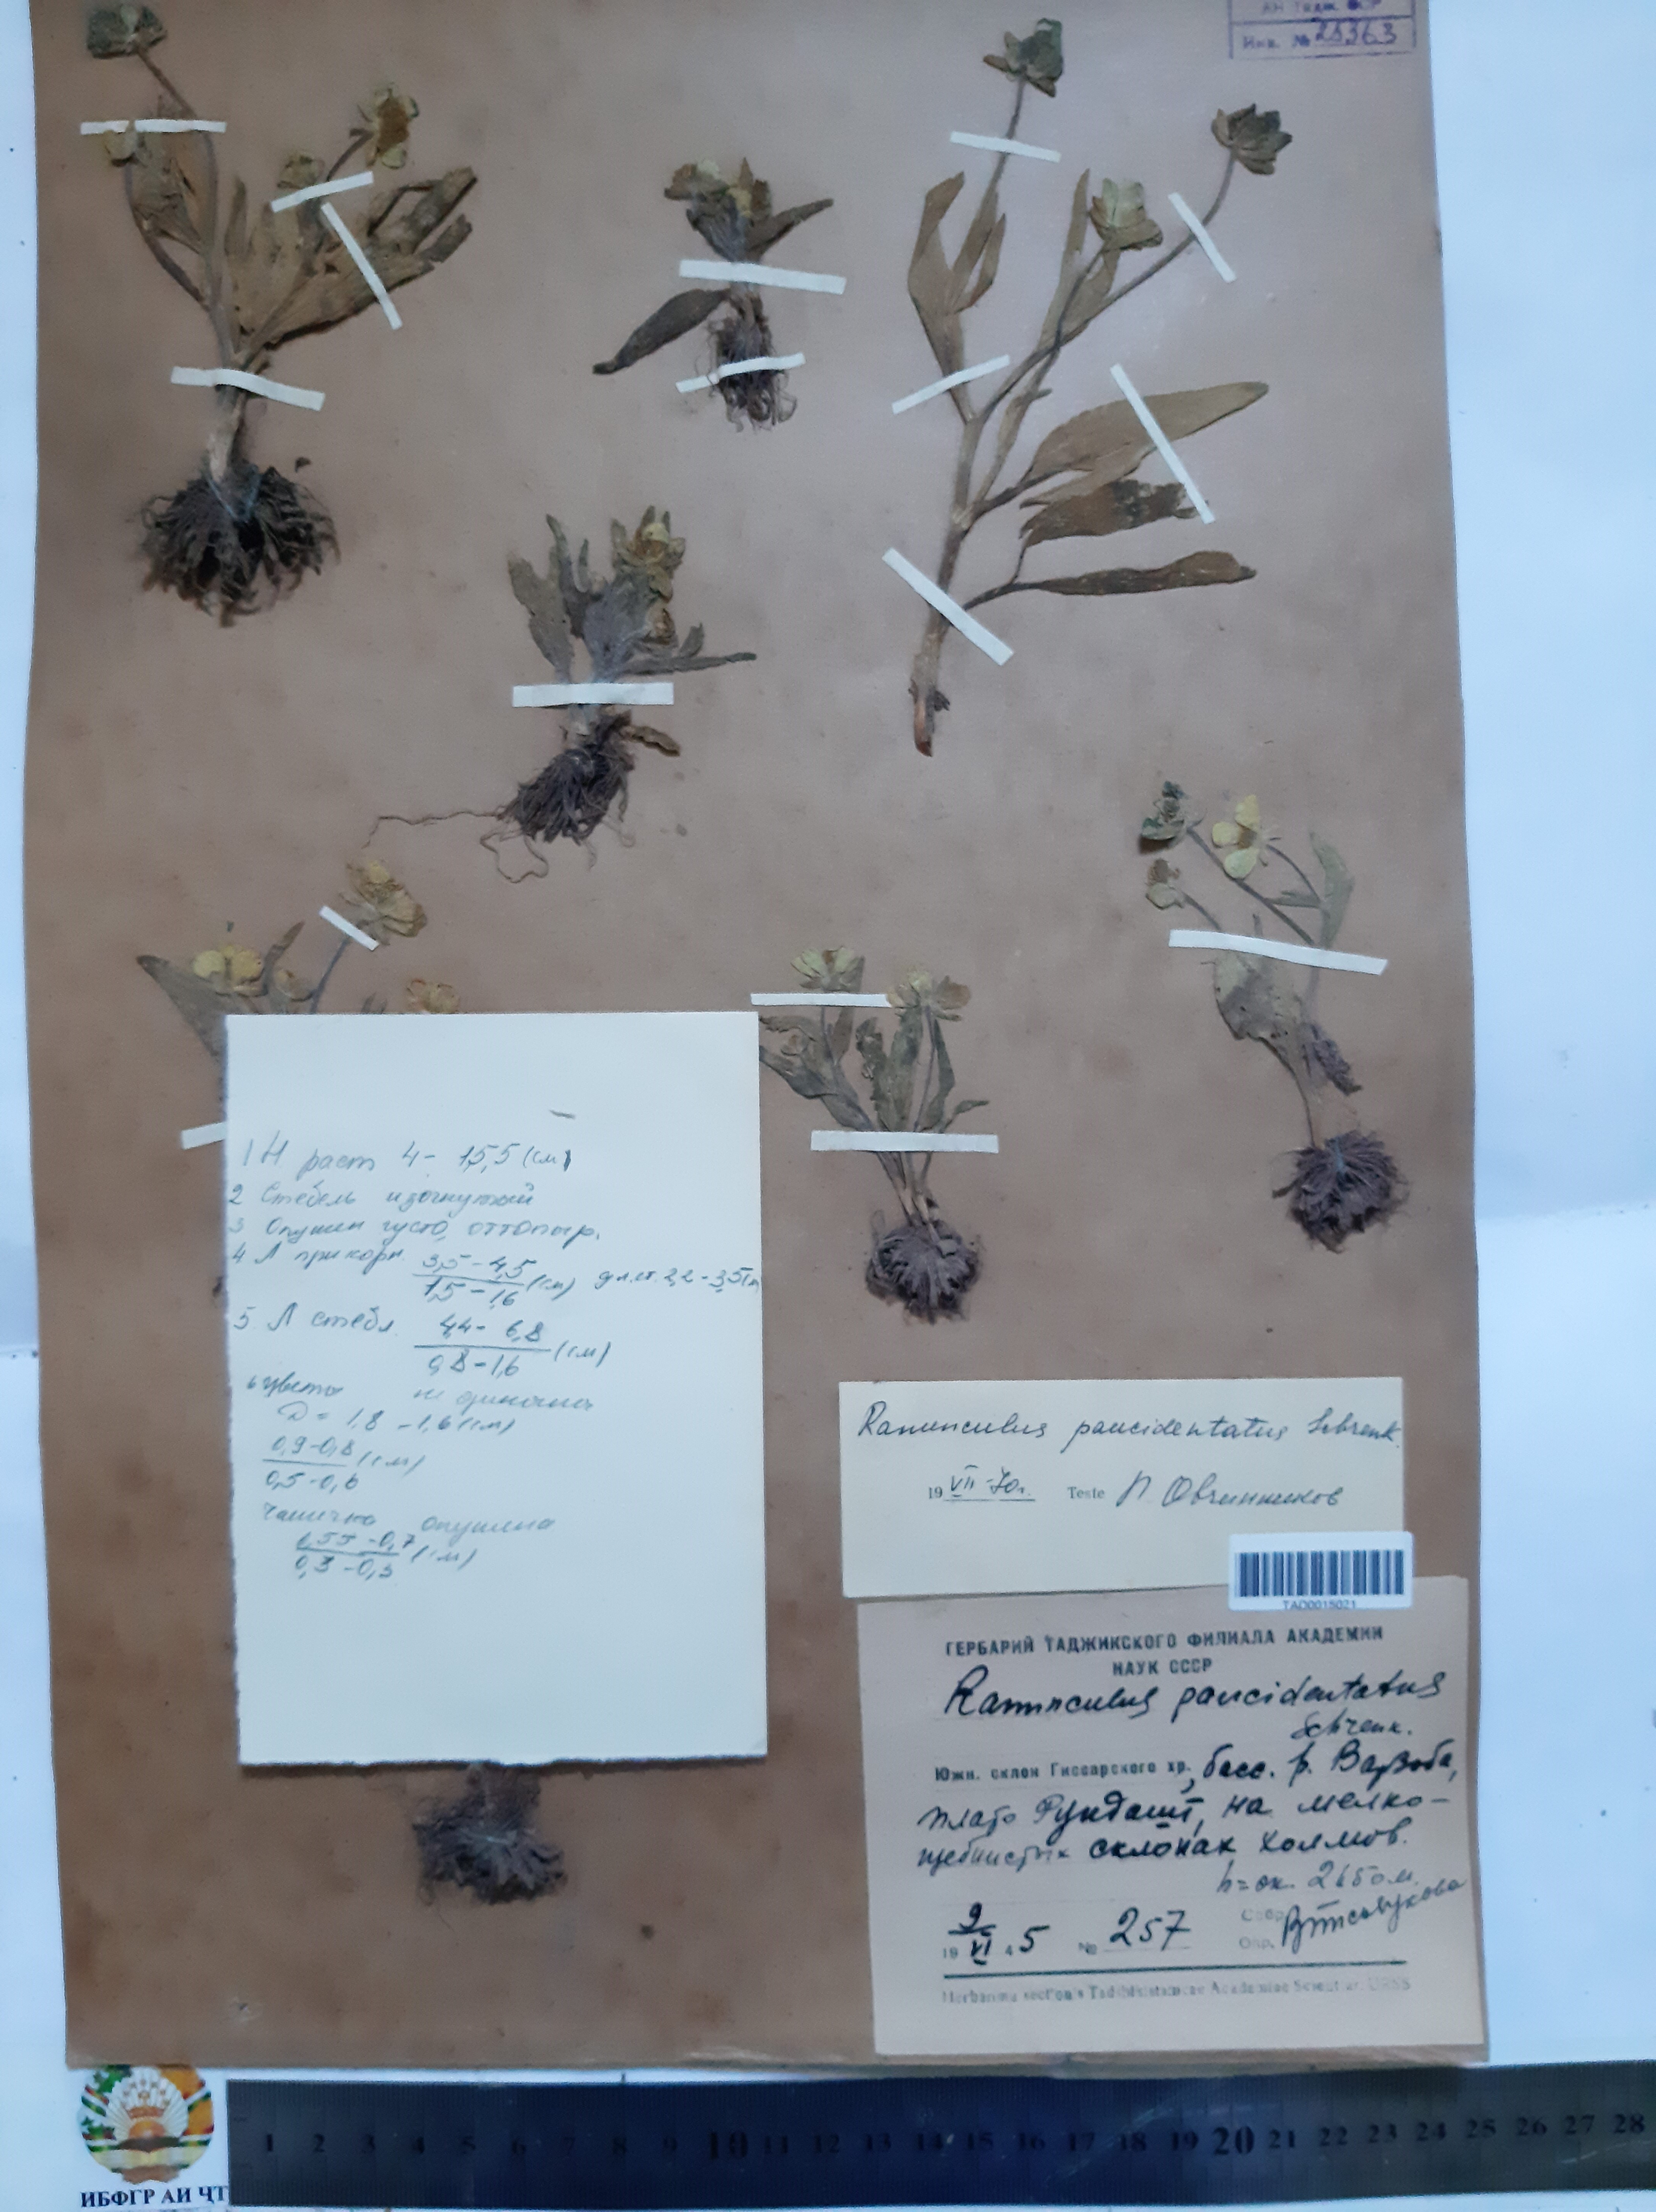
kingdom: Plantae
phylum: Tracheophyta
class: Magnoliopsida
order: Ranunculales
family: Ranunculaceae
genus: Ranunculus
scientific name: Ranunculus paucidentatus
